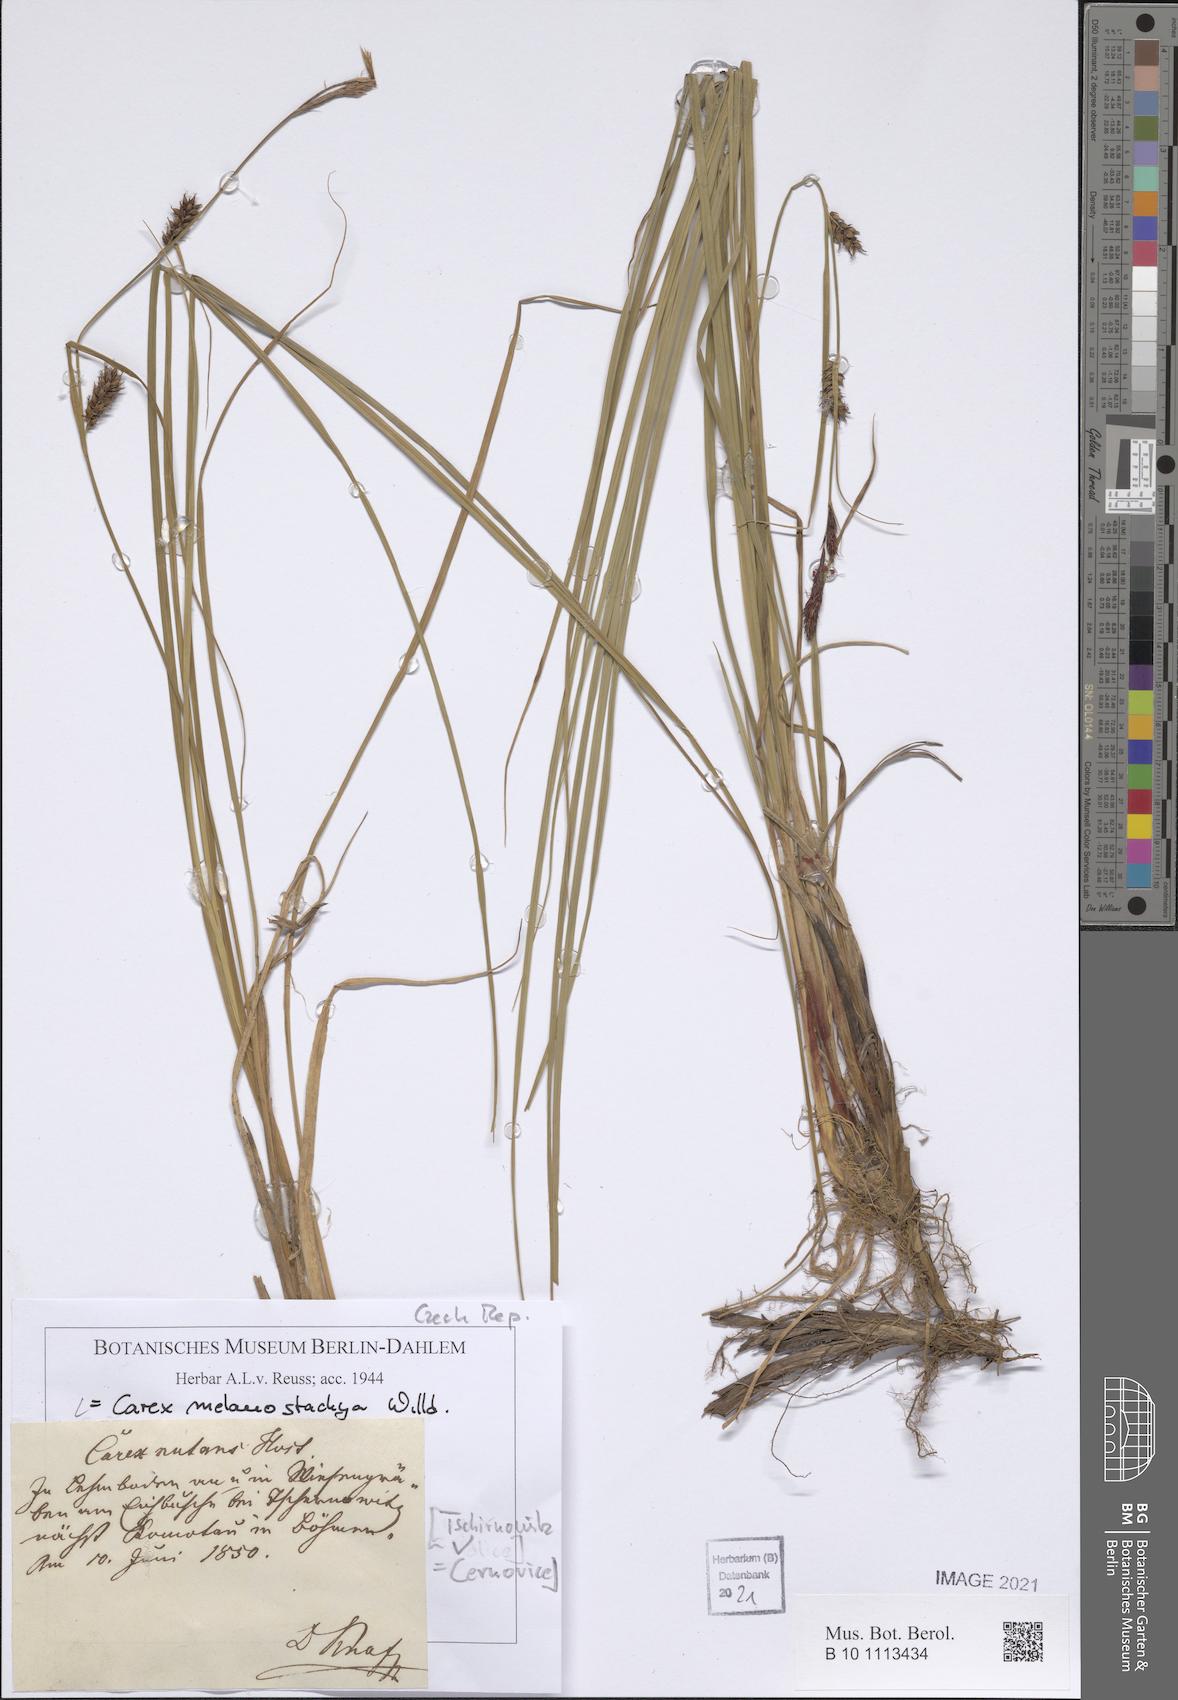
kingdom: Plantae
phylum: Tracheophyta
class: Liliopsida
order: Poales
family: Cyperaceae
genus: Carex
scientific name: Carex melanostachya
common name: Black-spiked sedge
